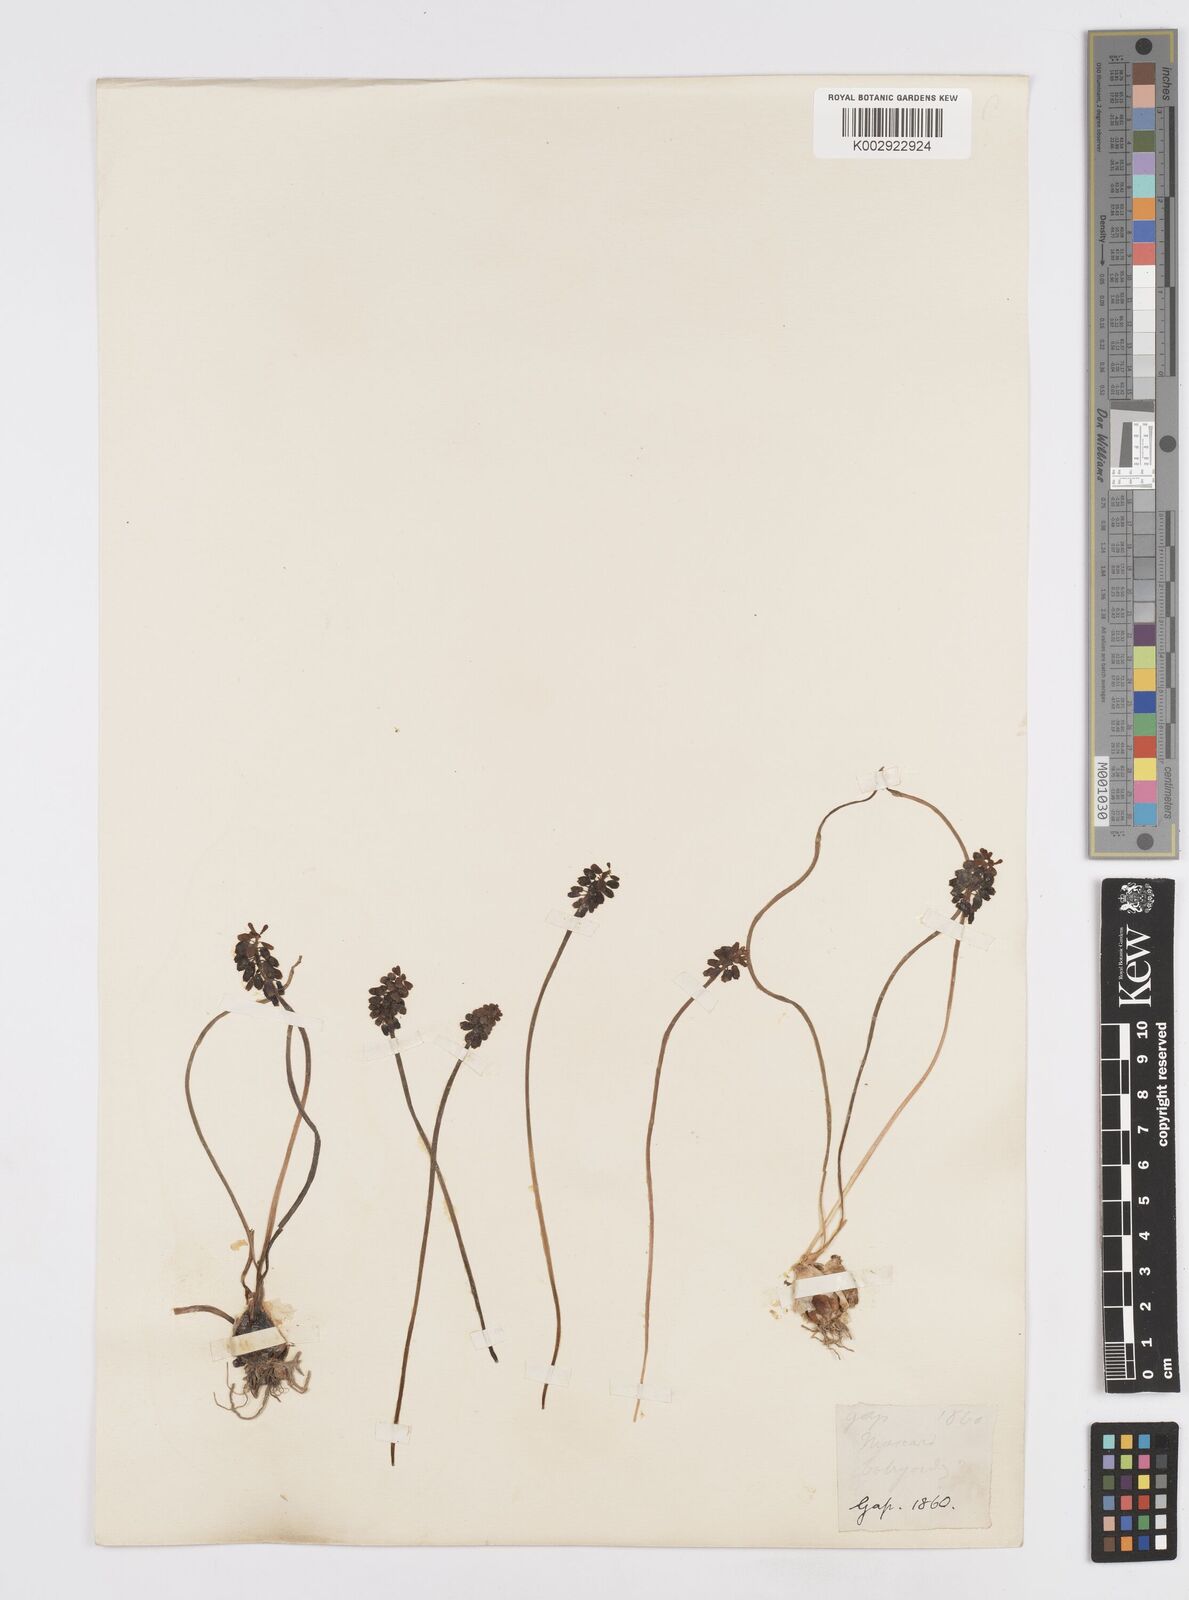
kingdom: Plantae
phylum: Tracheophyta
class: Liliopsida
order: Asparagales
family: Asparagaceae
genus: Muscarimia
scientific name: Muscarimia muscari
